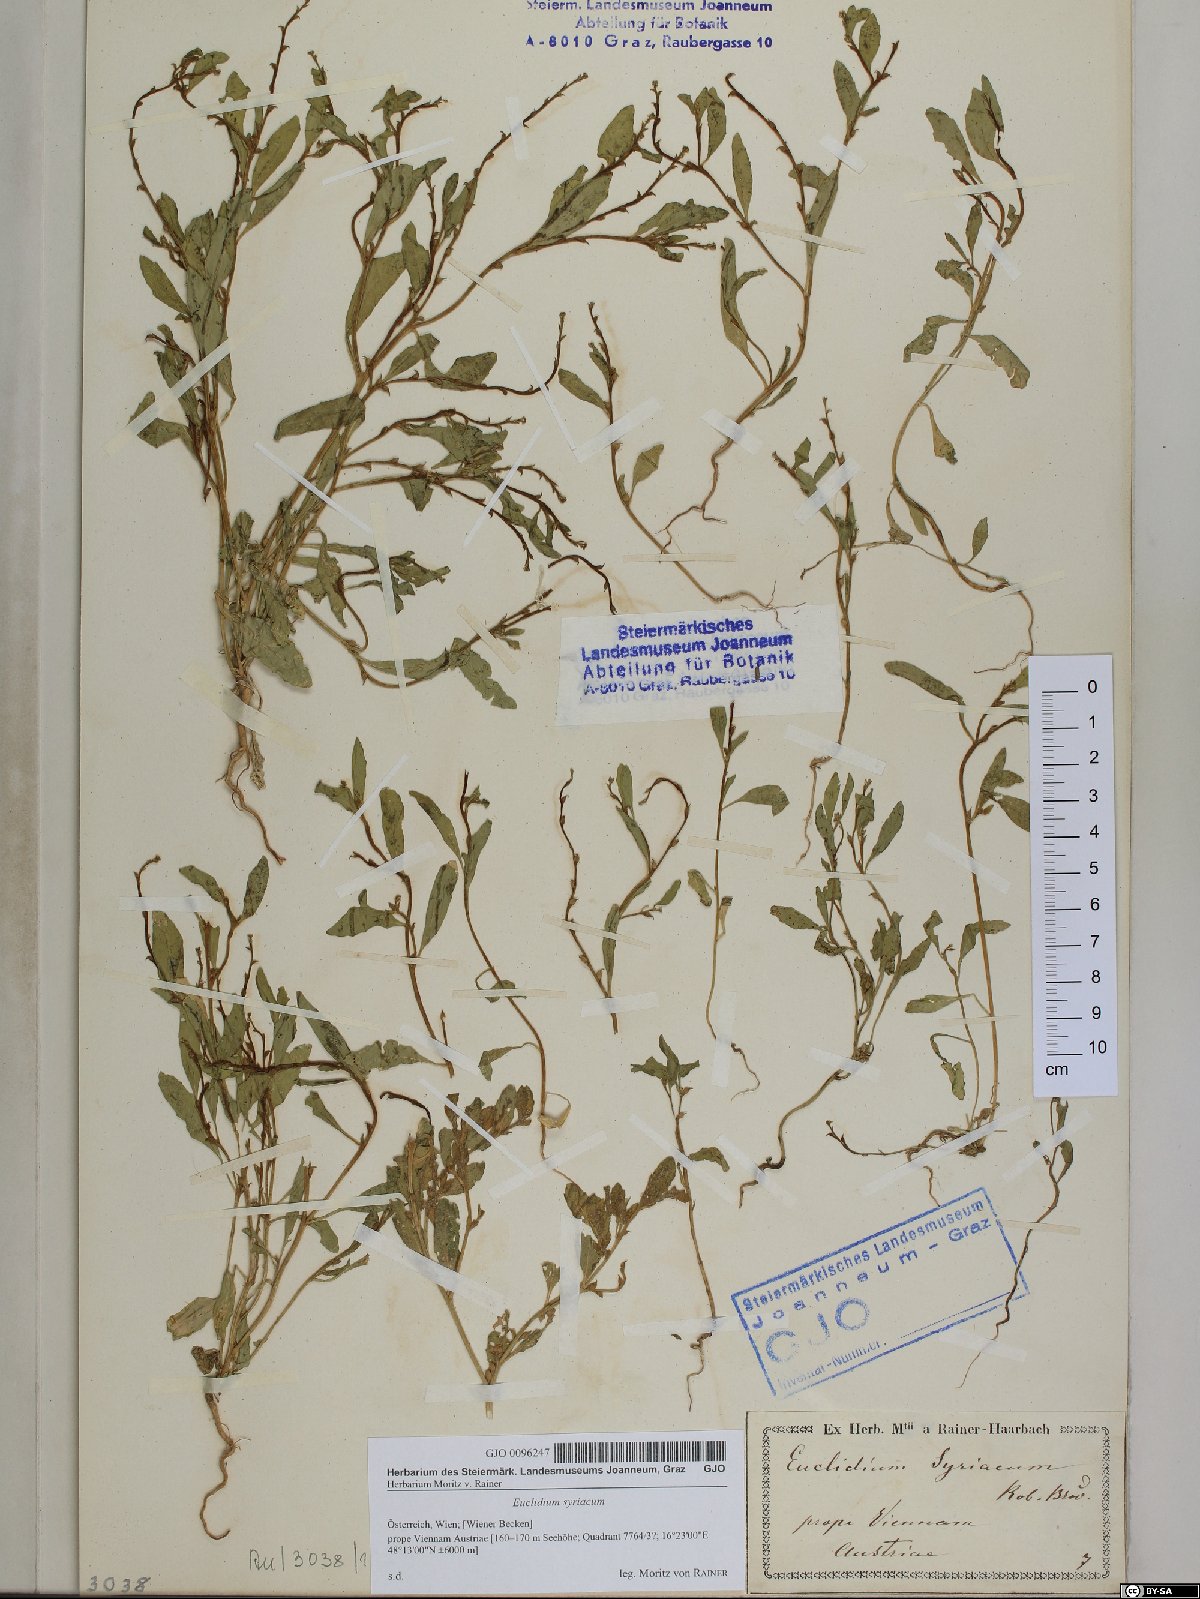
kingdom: Plantae
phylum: Tracheophyta
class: Magnoliopsida
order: Brassicales
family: Brassicaceae
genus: Euclidium
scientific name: Euclidium syriacum
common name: Syrian mustard
